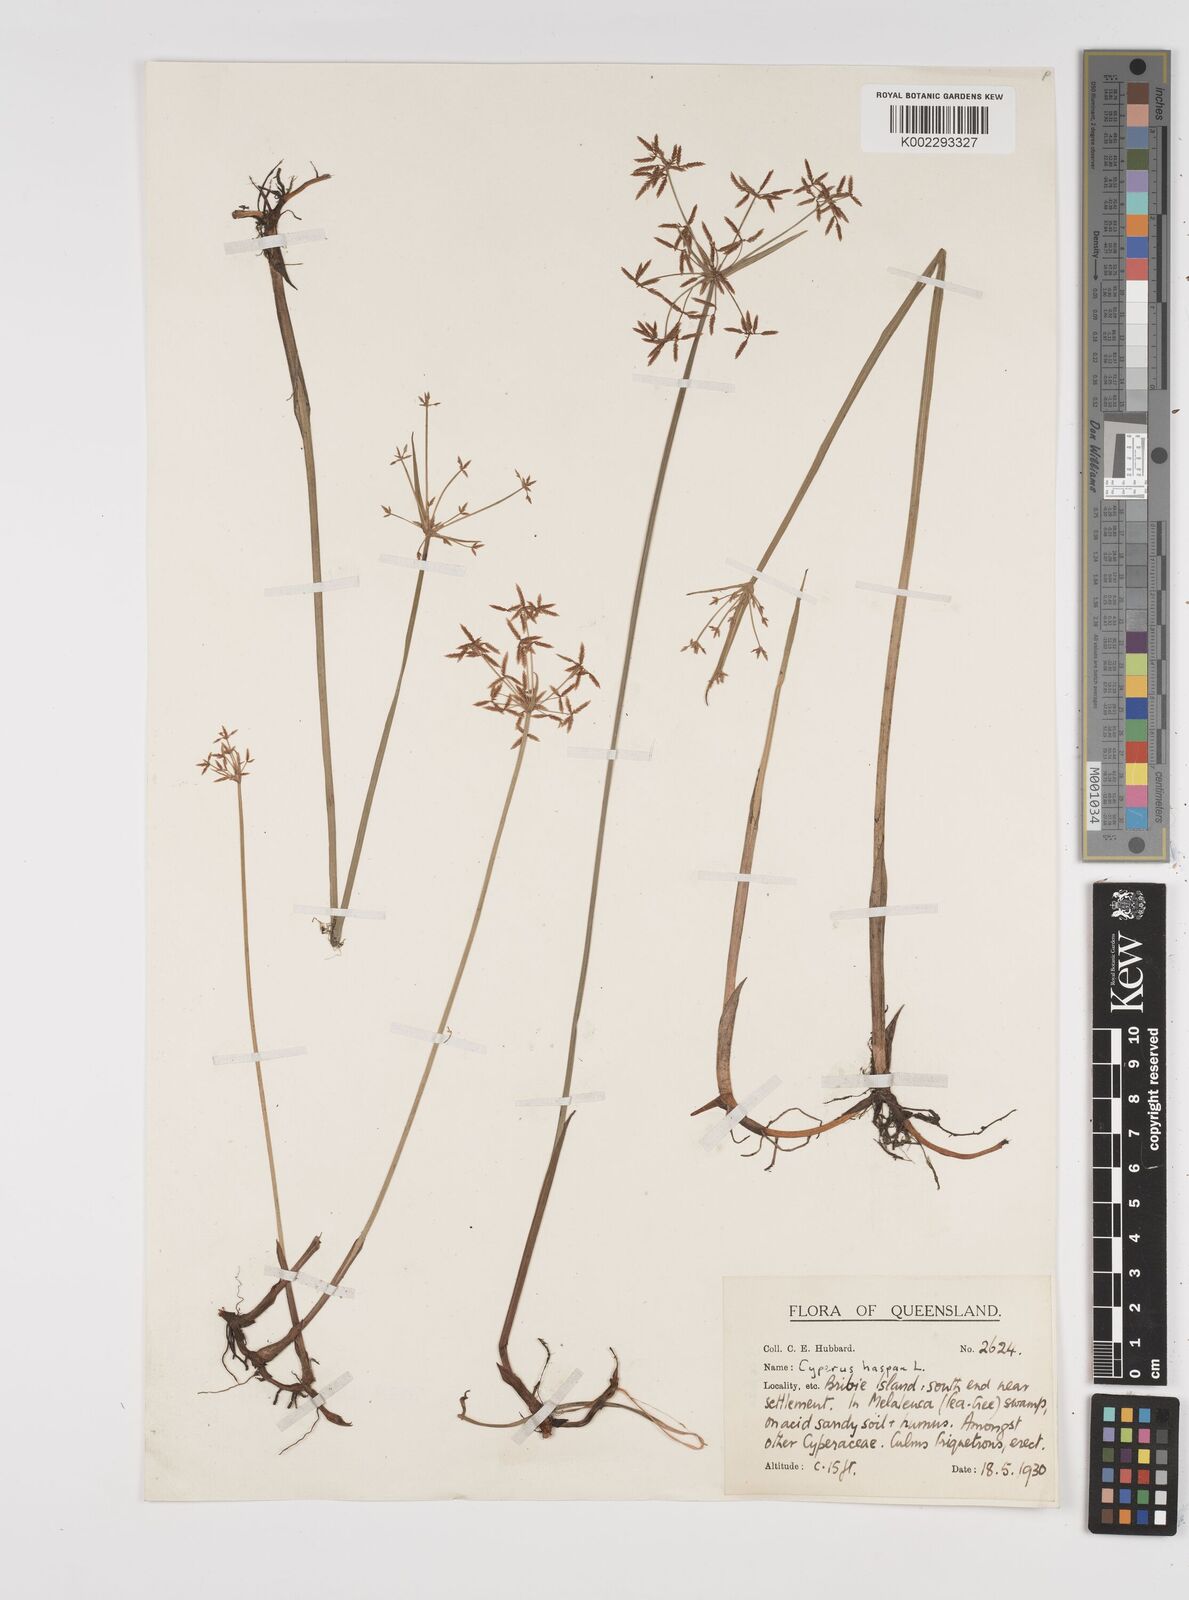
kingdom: Plantae
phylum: Tracheophyta
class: Liliopsida
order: Poales
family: Cyperaceae
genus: Cyperus
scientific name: Cyperus haspan
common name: Haspan flatsedge
